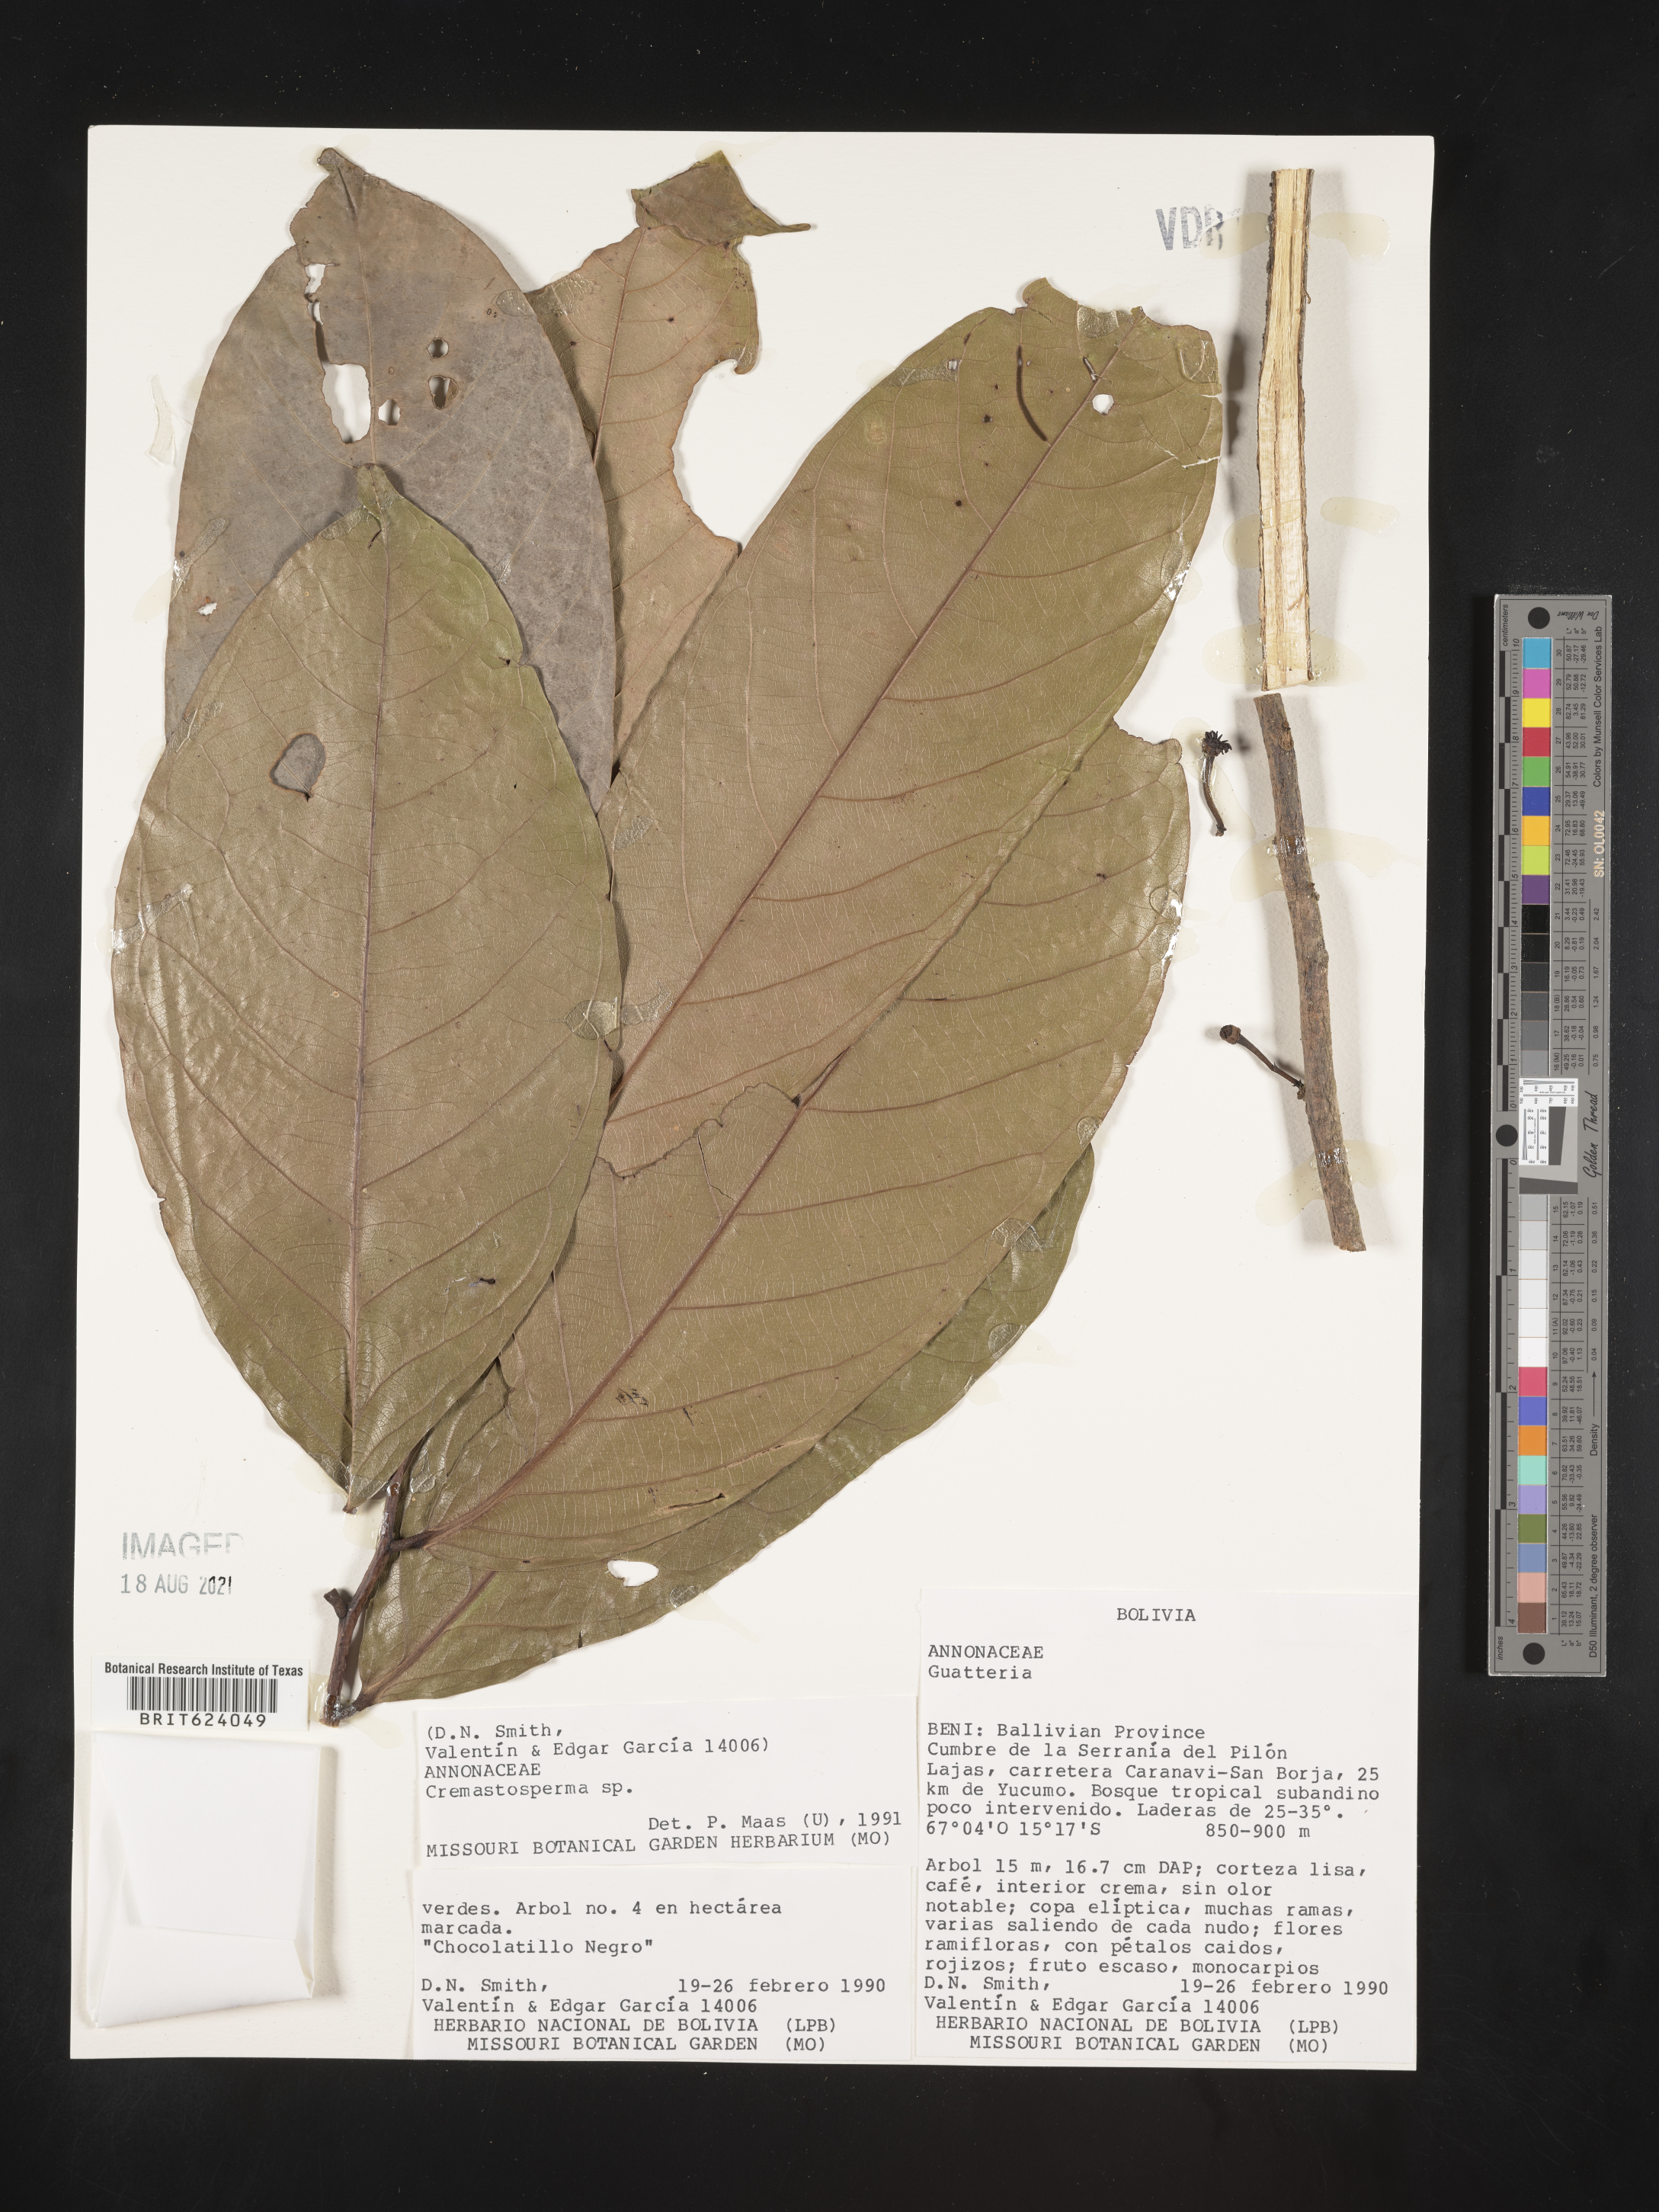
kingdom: Plantae
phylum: Tracheophyta
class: Magnoliopsida
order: Magnoliales
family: Annonaceae
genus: Cremastosperma
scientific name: Cremastosperma
